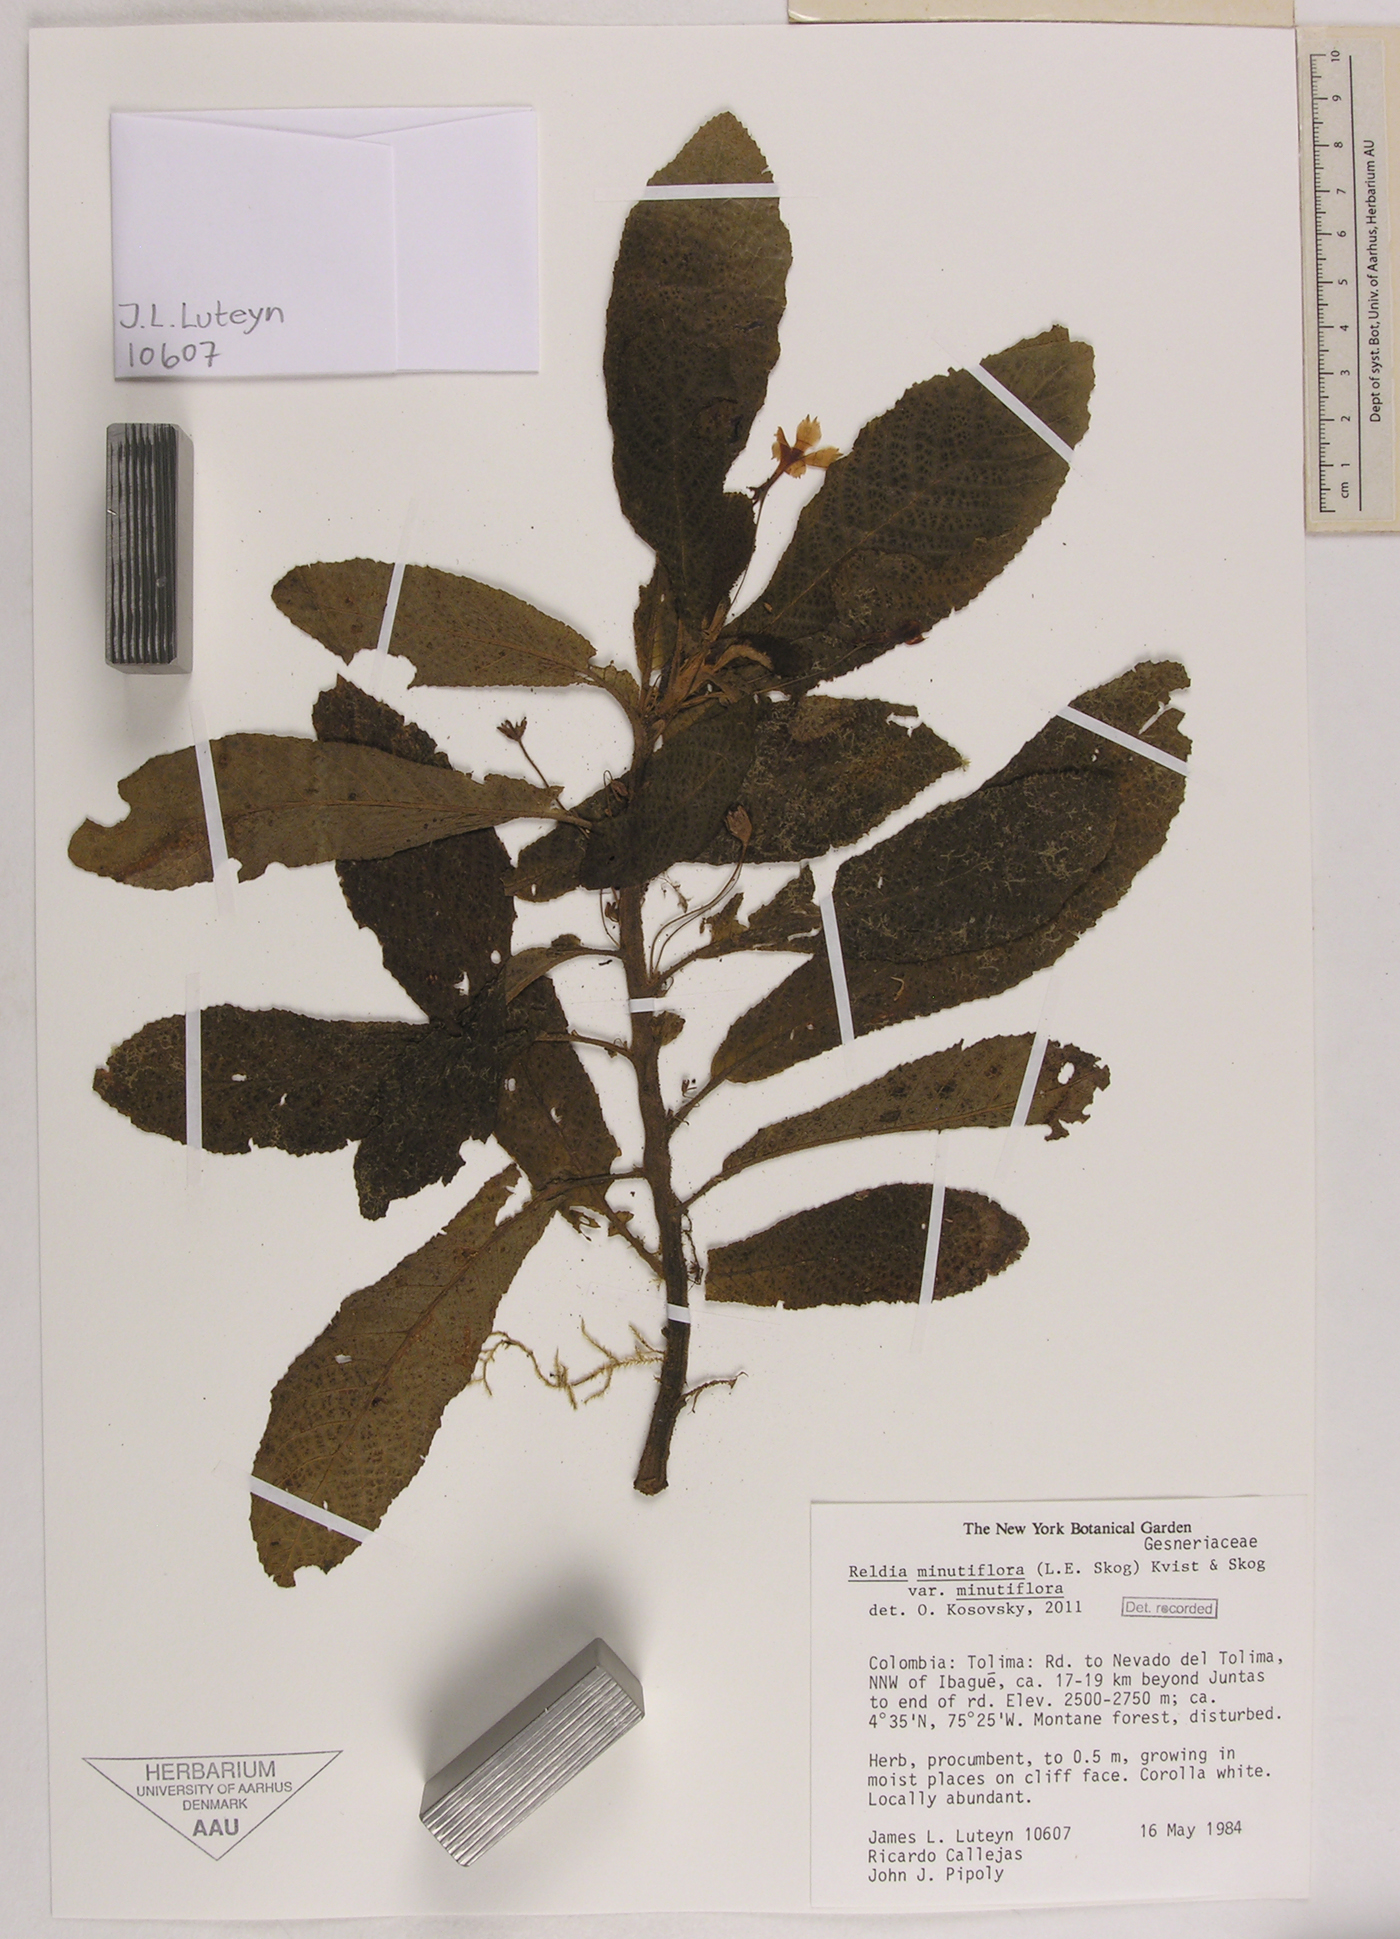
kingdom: Plantae
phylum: Tracheophyta
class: Magnoliopsida
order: Lamiales
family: Gesneriaceae
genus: Reldia
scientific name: Reldia minutiflora
